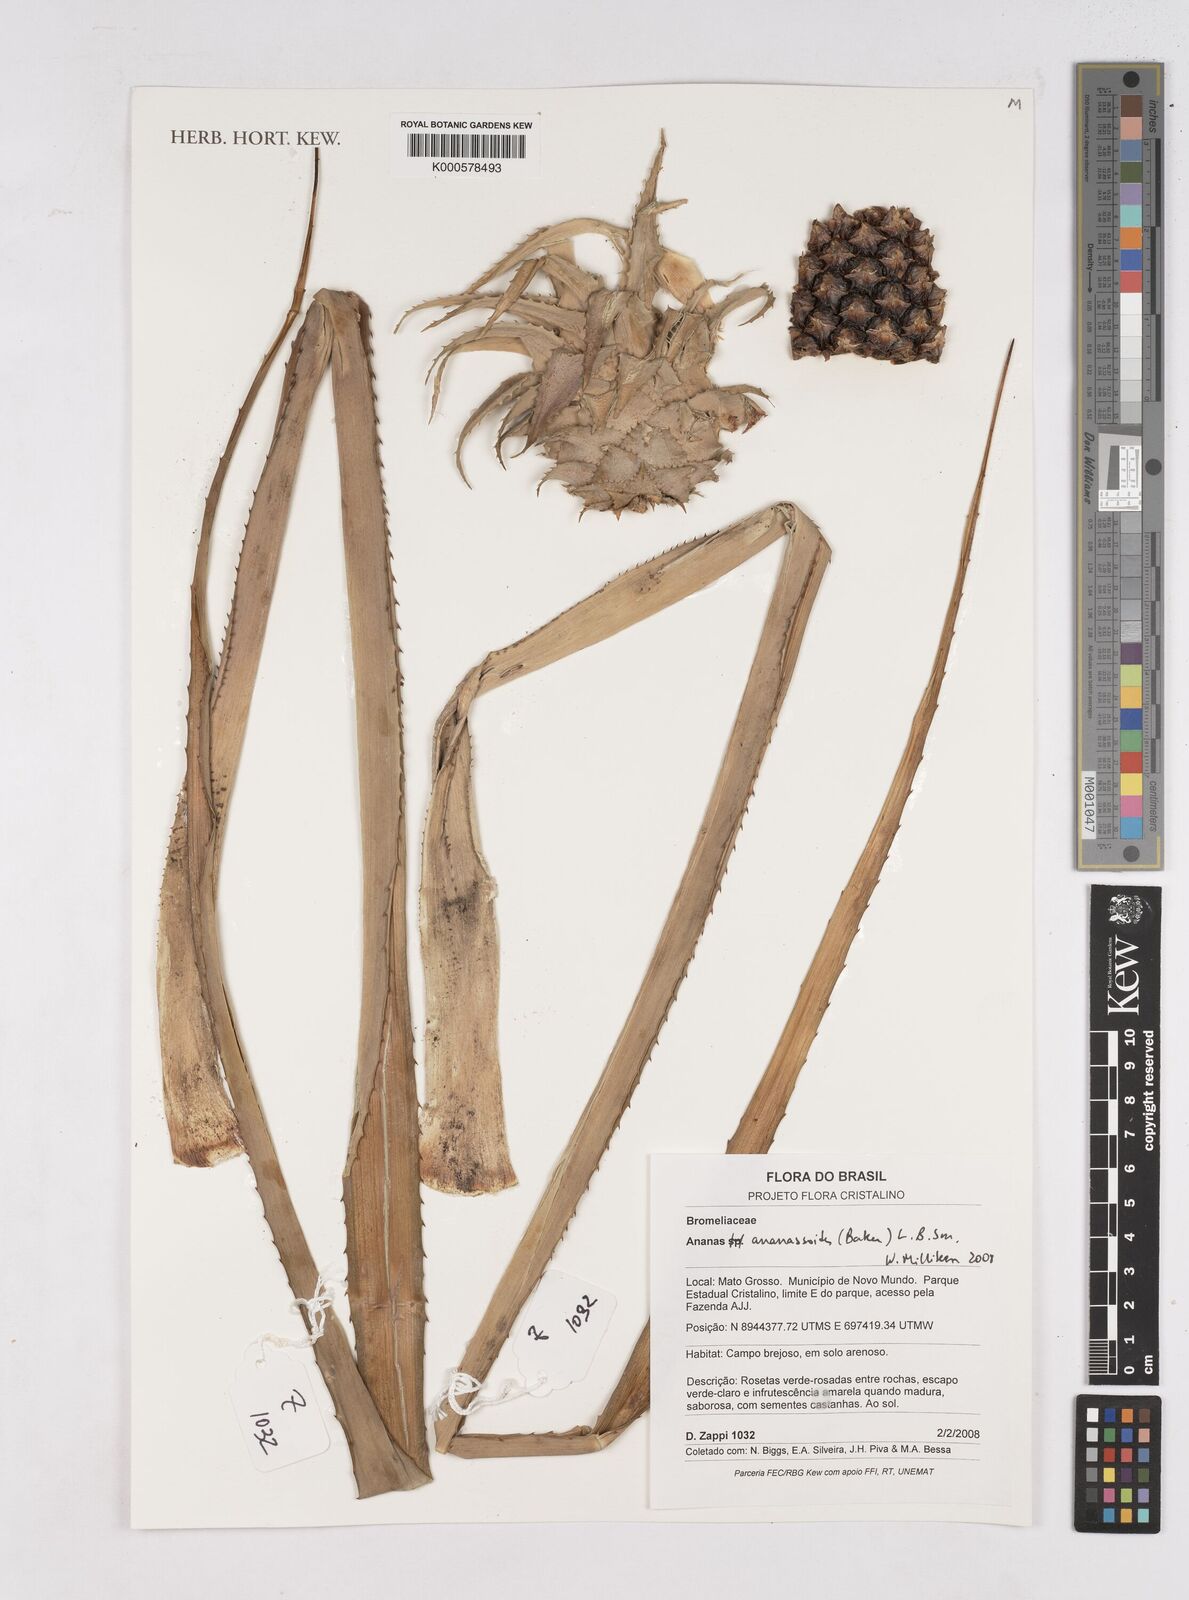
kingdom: Plantae
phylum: Tracheophyta
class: Liliopsida
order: Poales
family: Bromeliaceae
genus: Ananas
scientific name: Ananas comosus
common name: Pineapple
